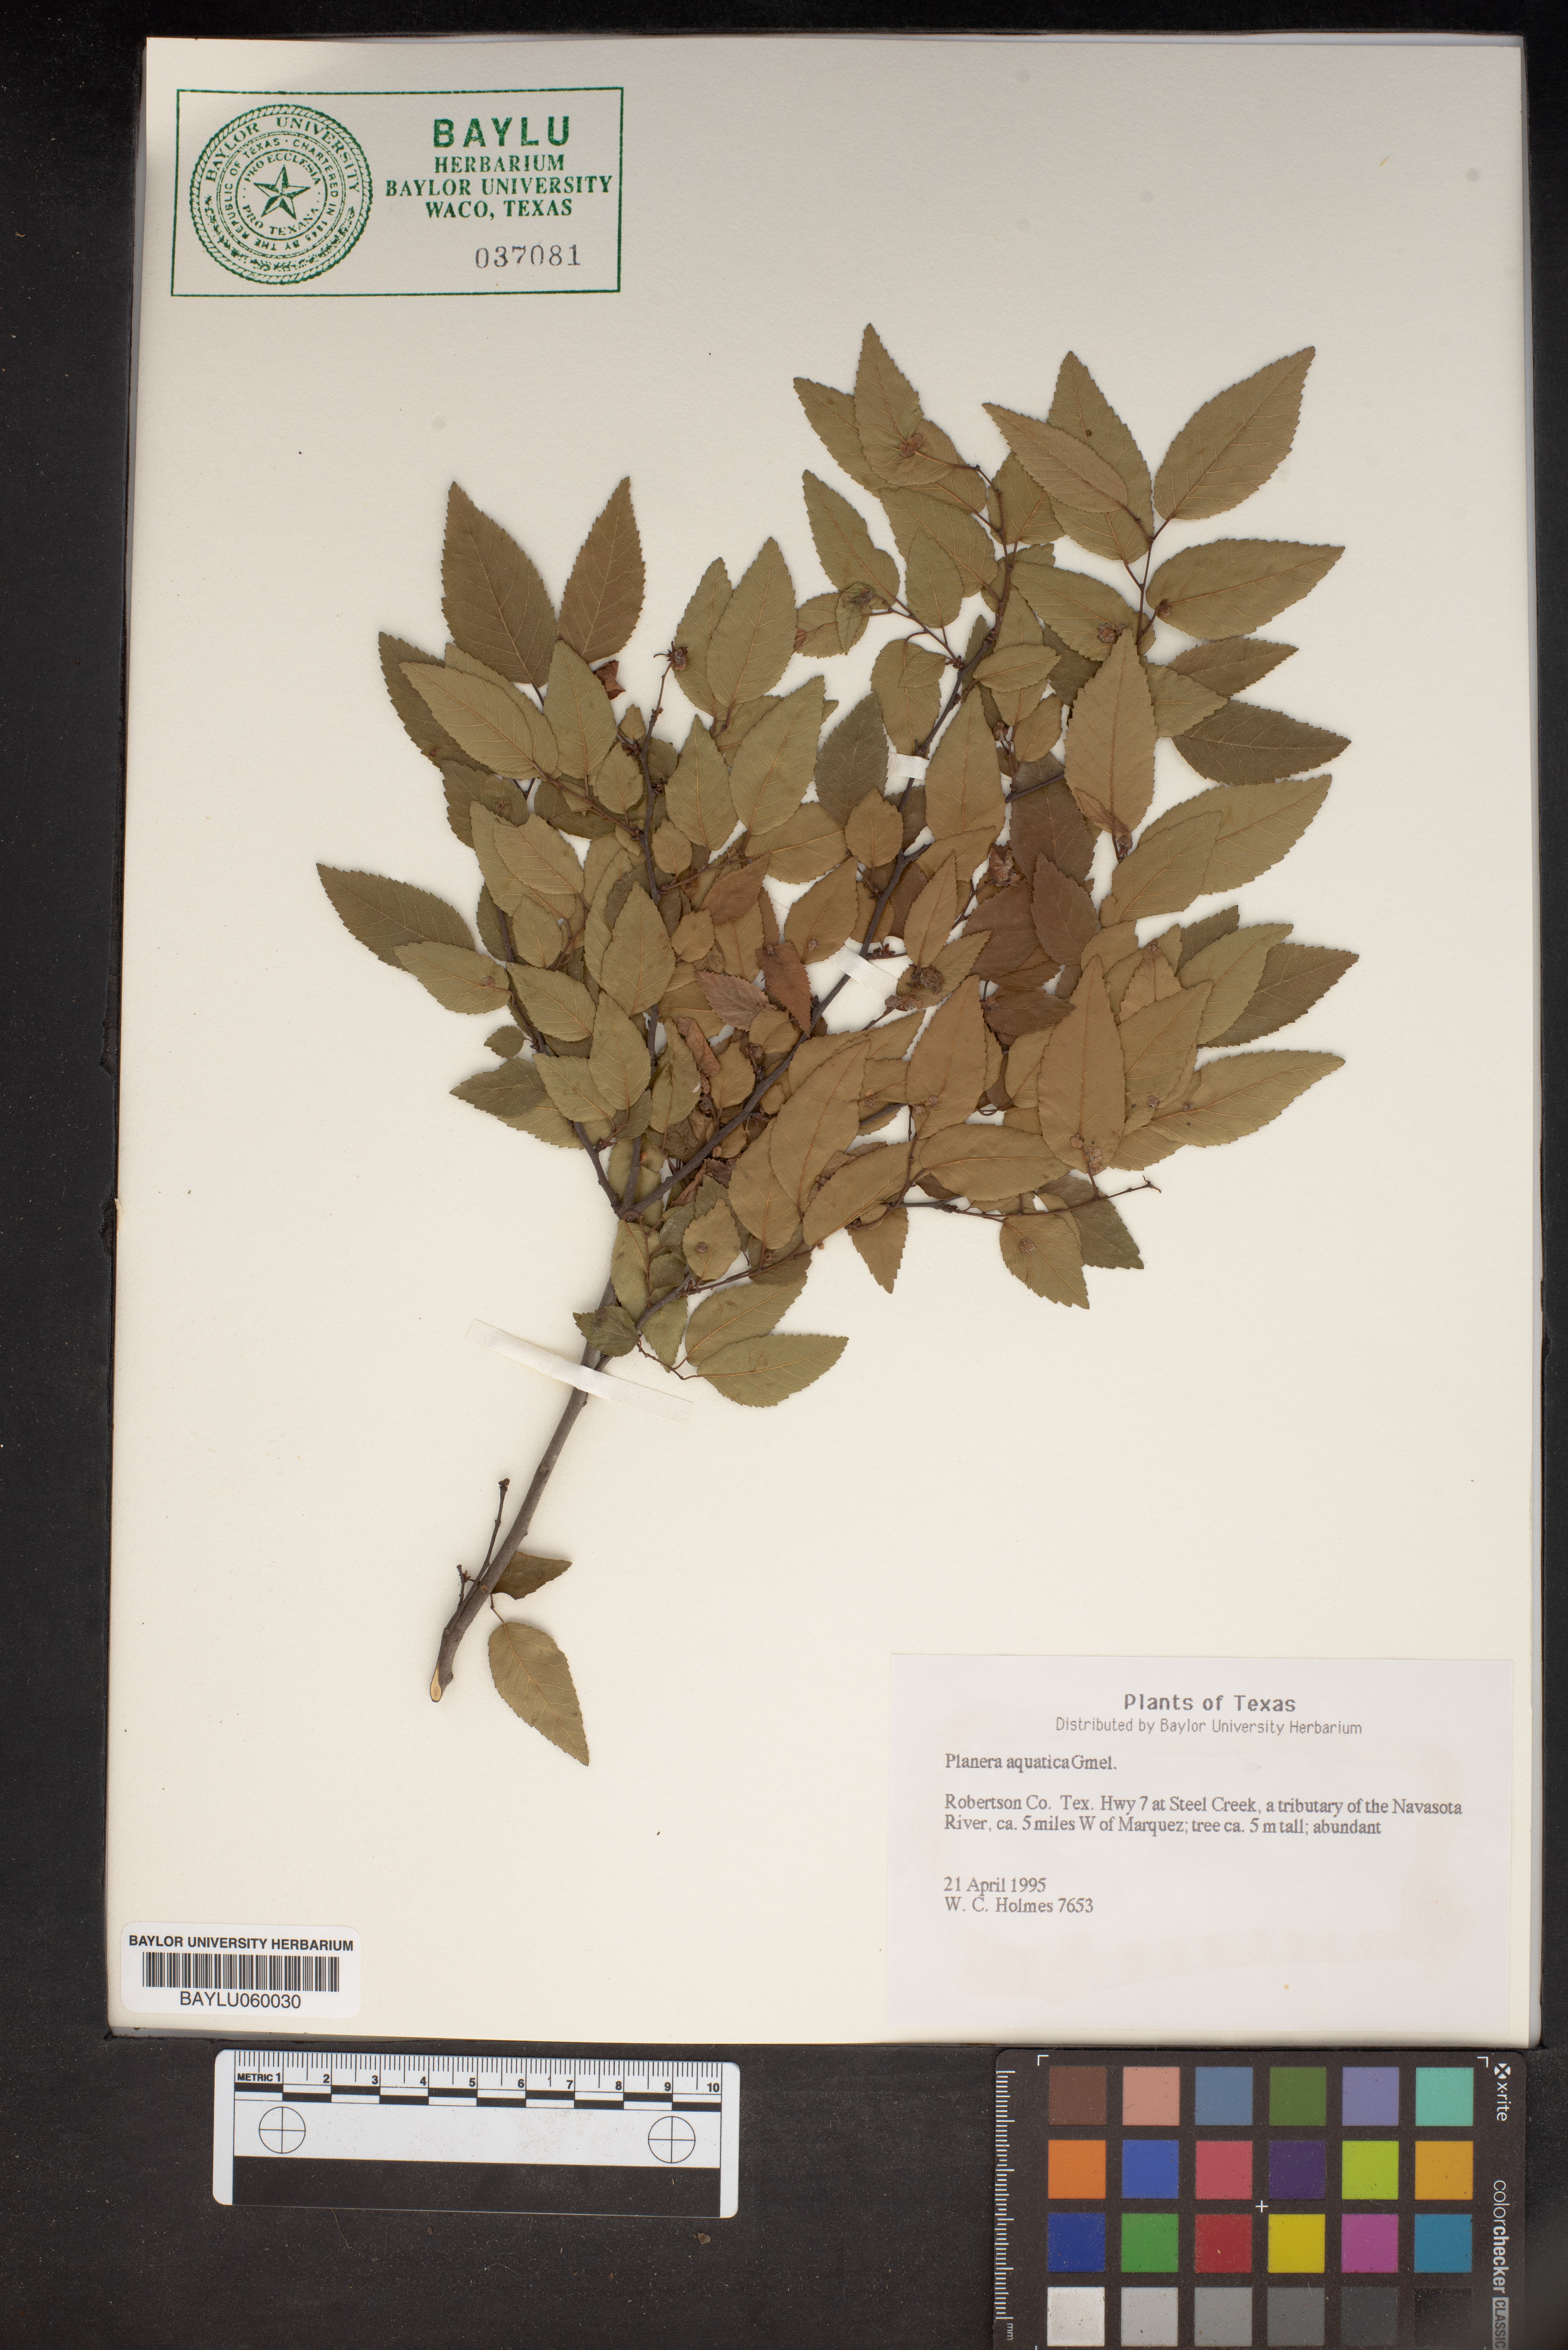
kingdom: Plantae
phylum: Tracheophyta
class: Magnoliopsida
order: Rosales
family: Ulmaceae
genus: Planera
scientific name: Planera aquatica
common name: Water-elm
